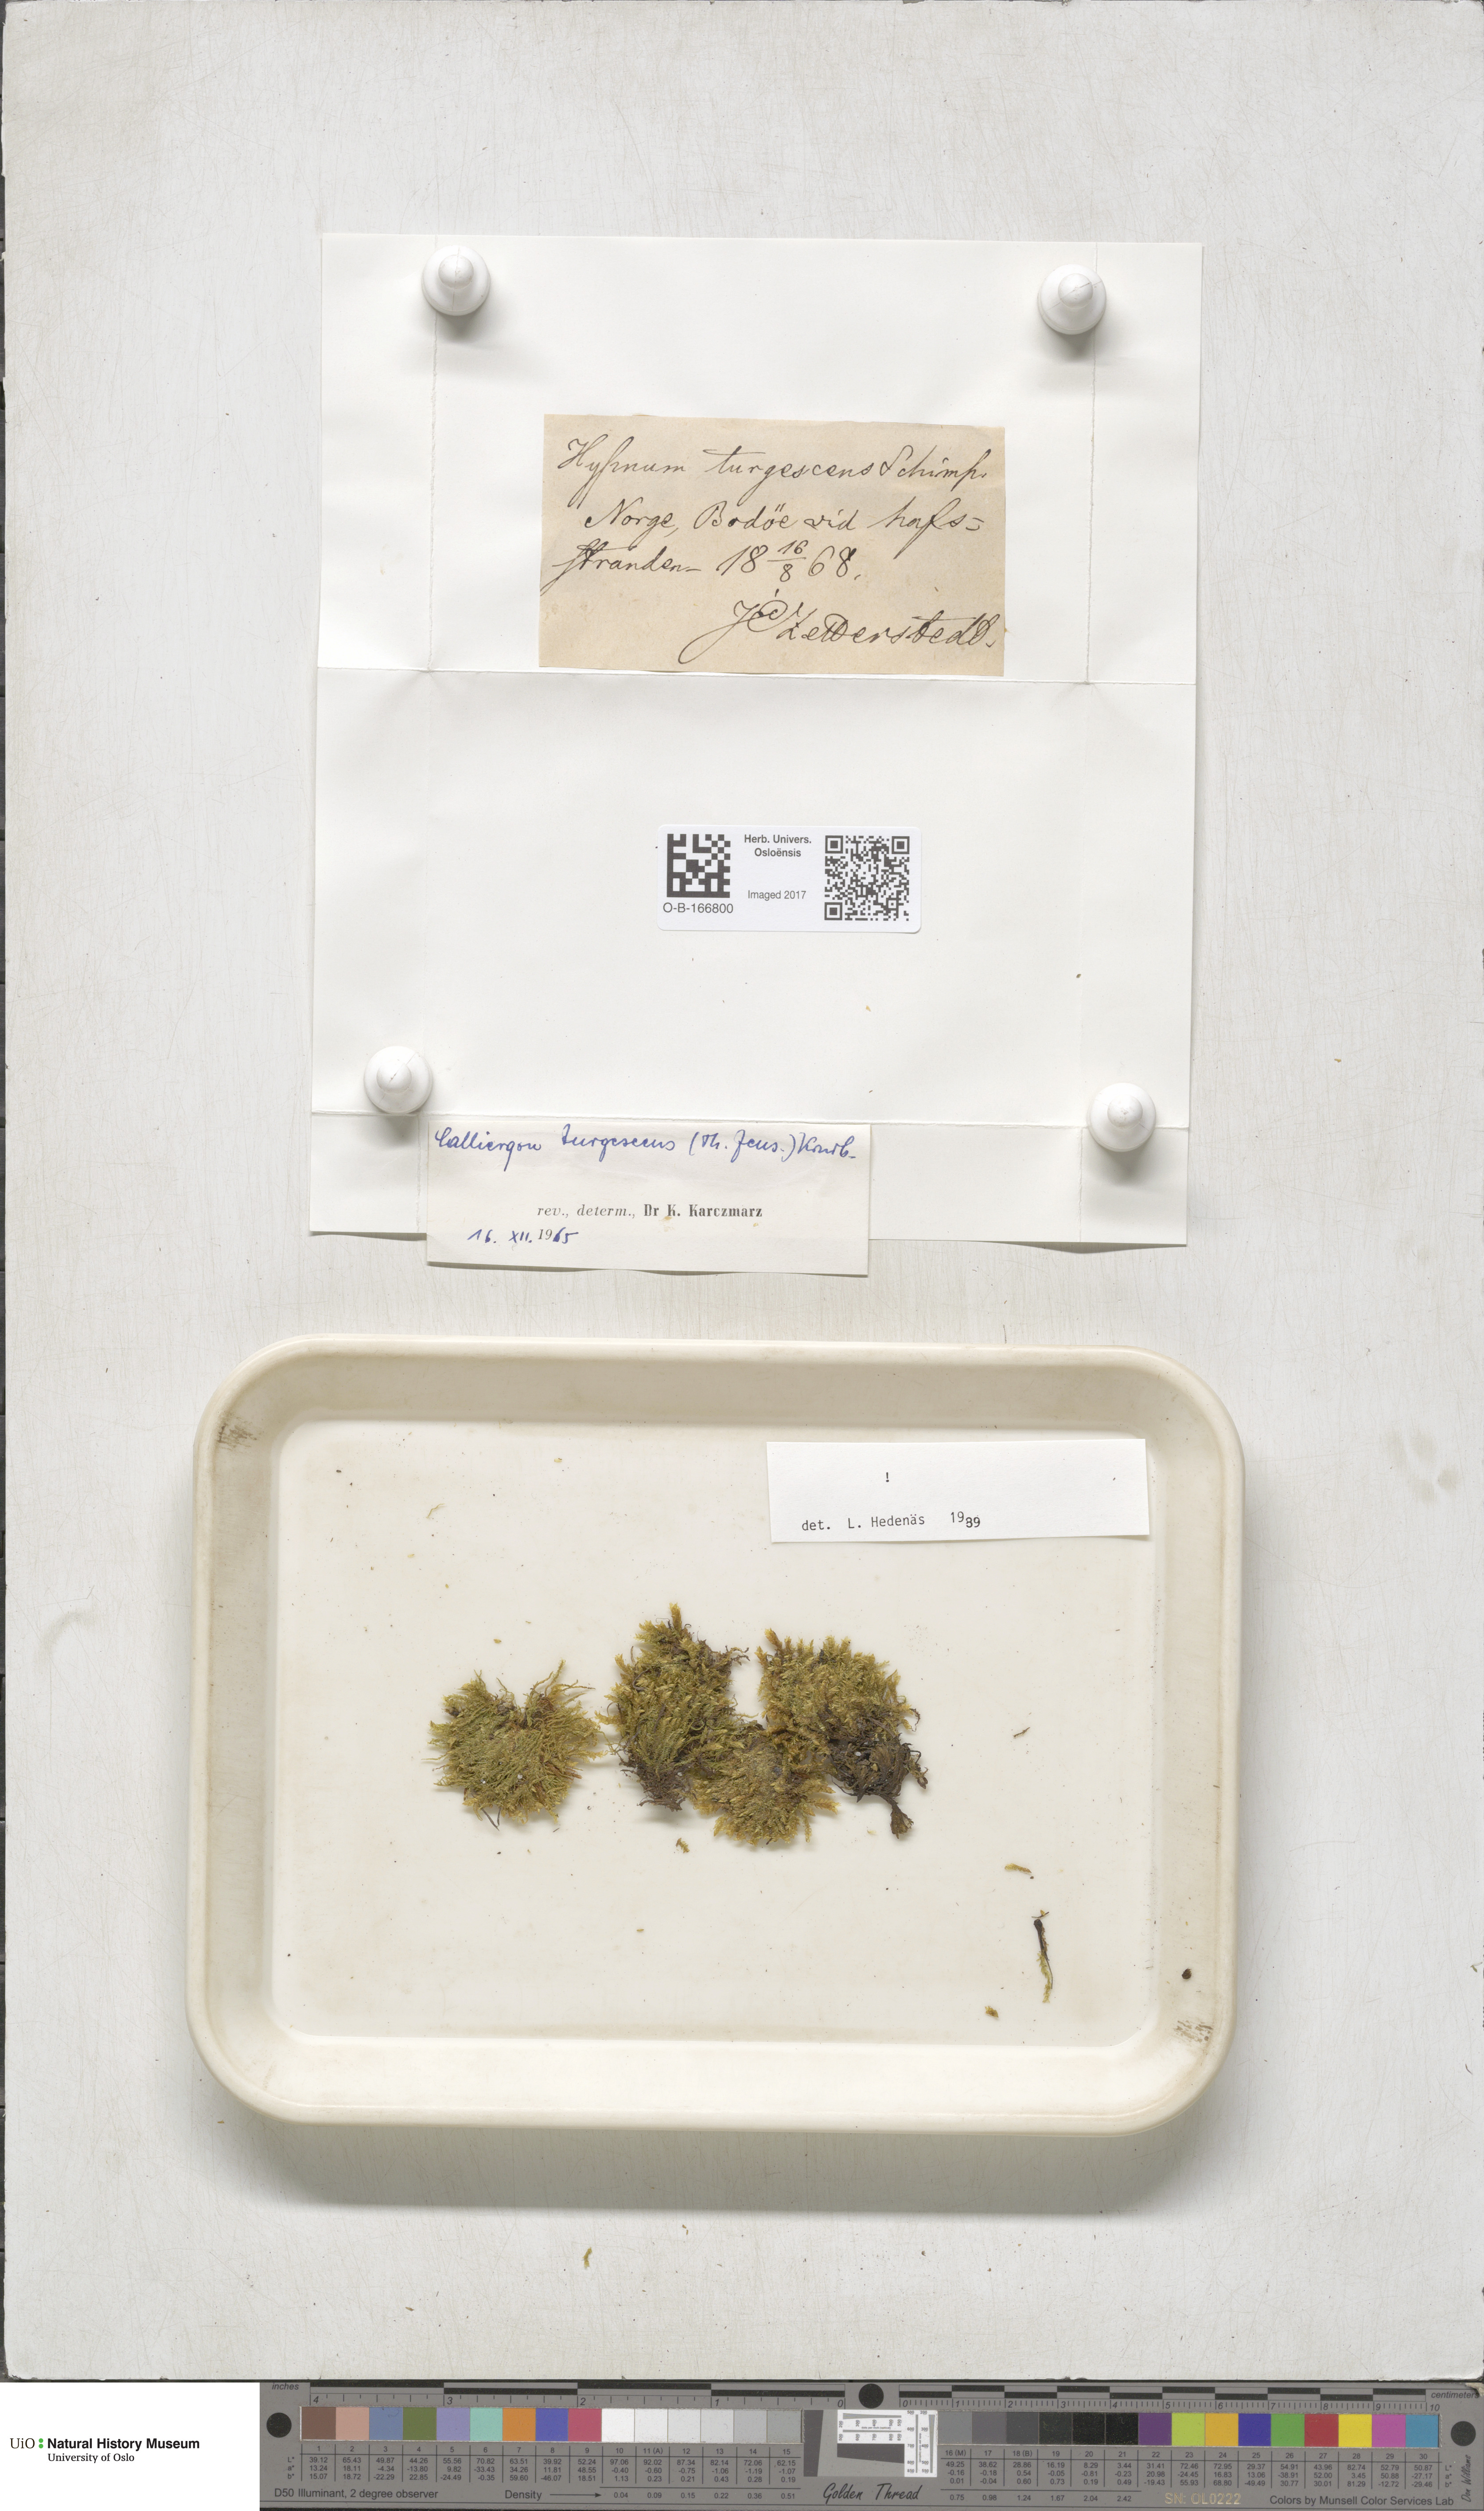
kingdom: Plantae
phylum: Bryophyta
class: Bryopsida
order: Hypnales
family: Amblystegiaceae
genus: Drepanocladus
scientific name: Drepanocladus turgescens
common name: Large yellow feather-moss
